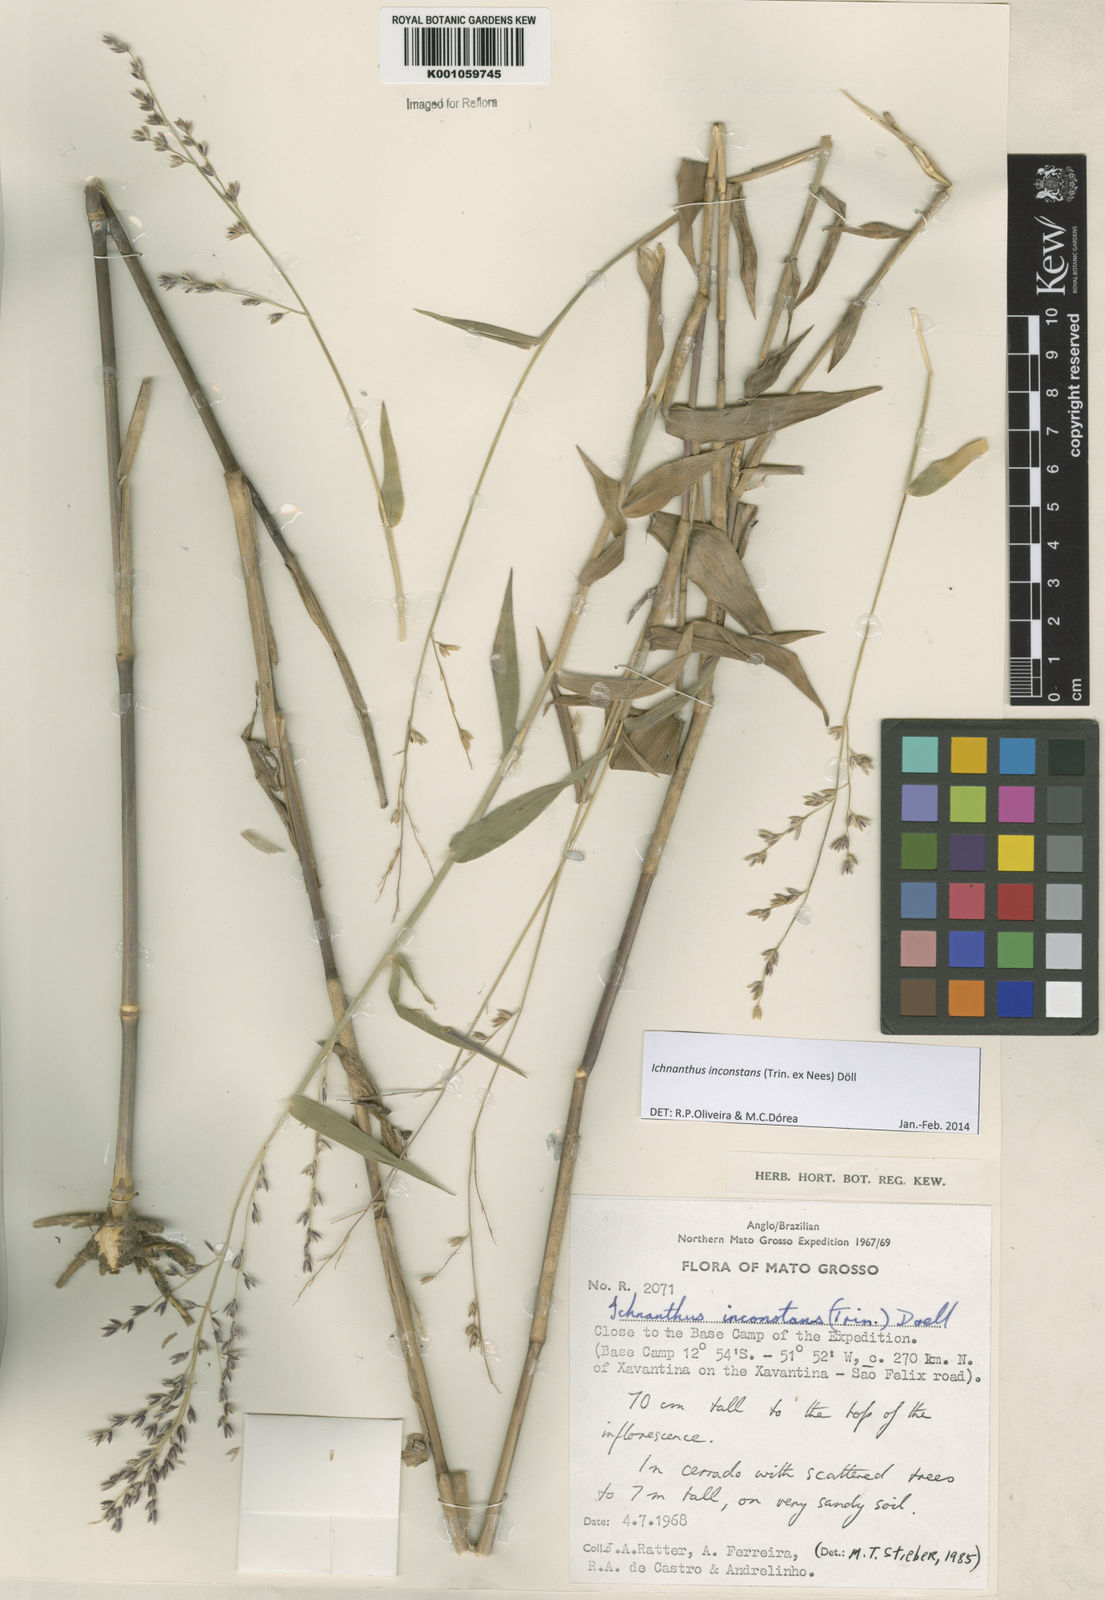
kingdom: Plantae
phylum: Tracheophyta
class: Liliopsida
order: Poales
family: Poaceae
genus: Ichnanthus
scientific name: Ichnanthus
